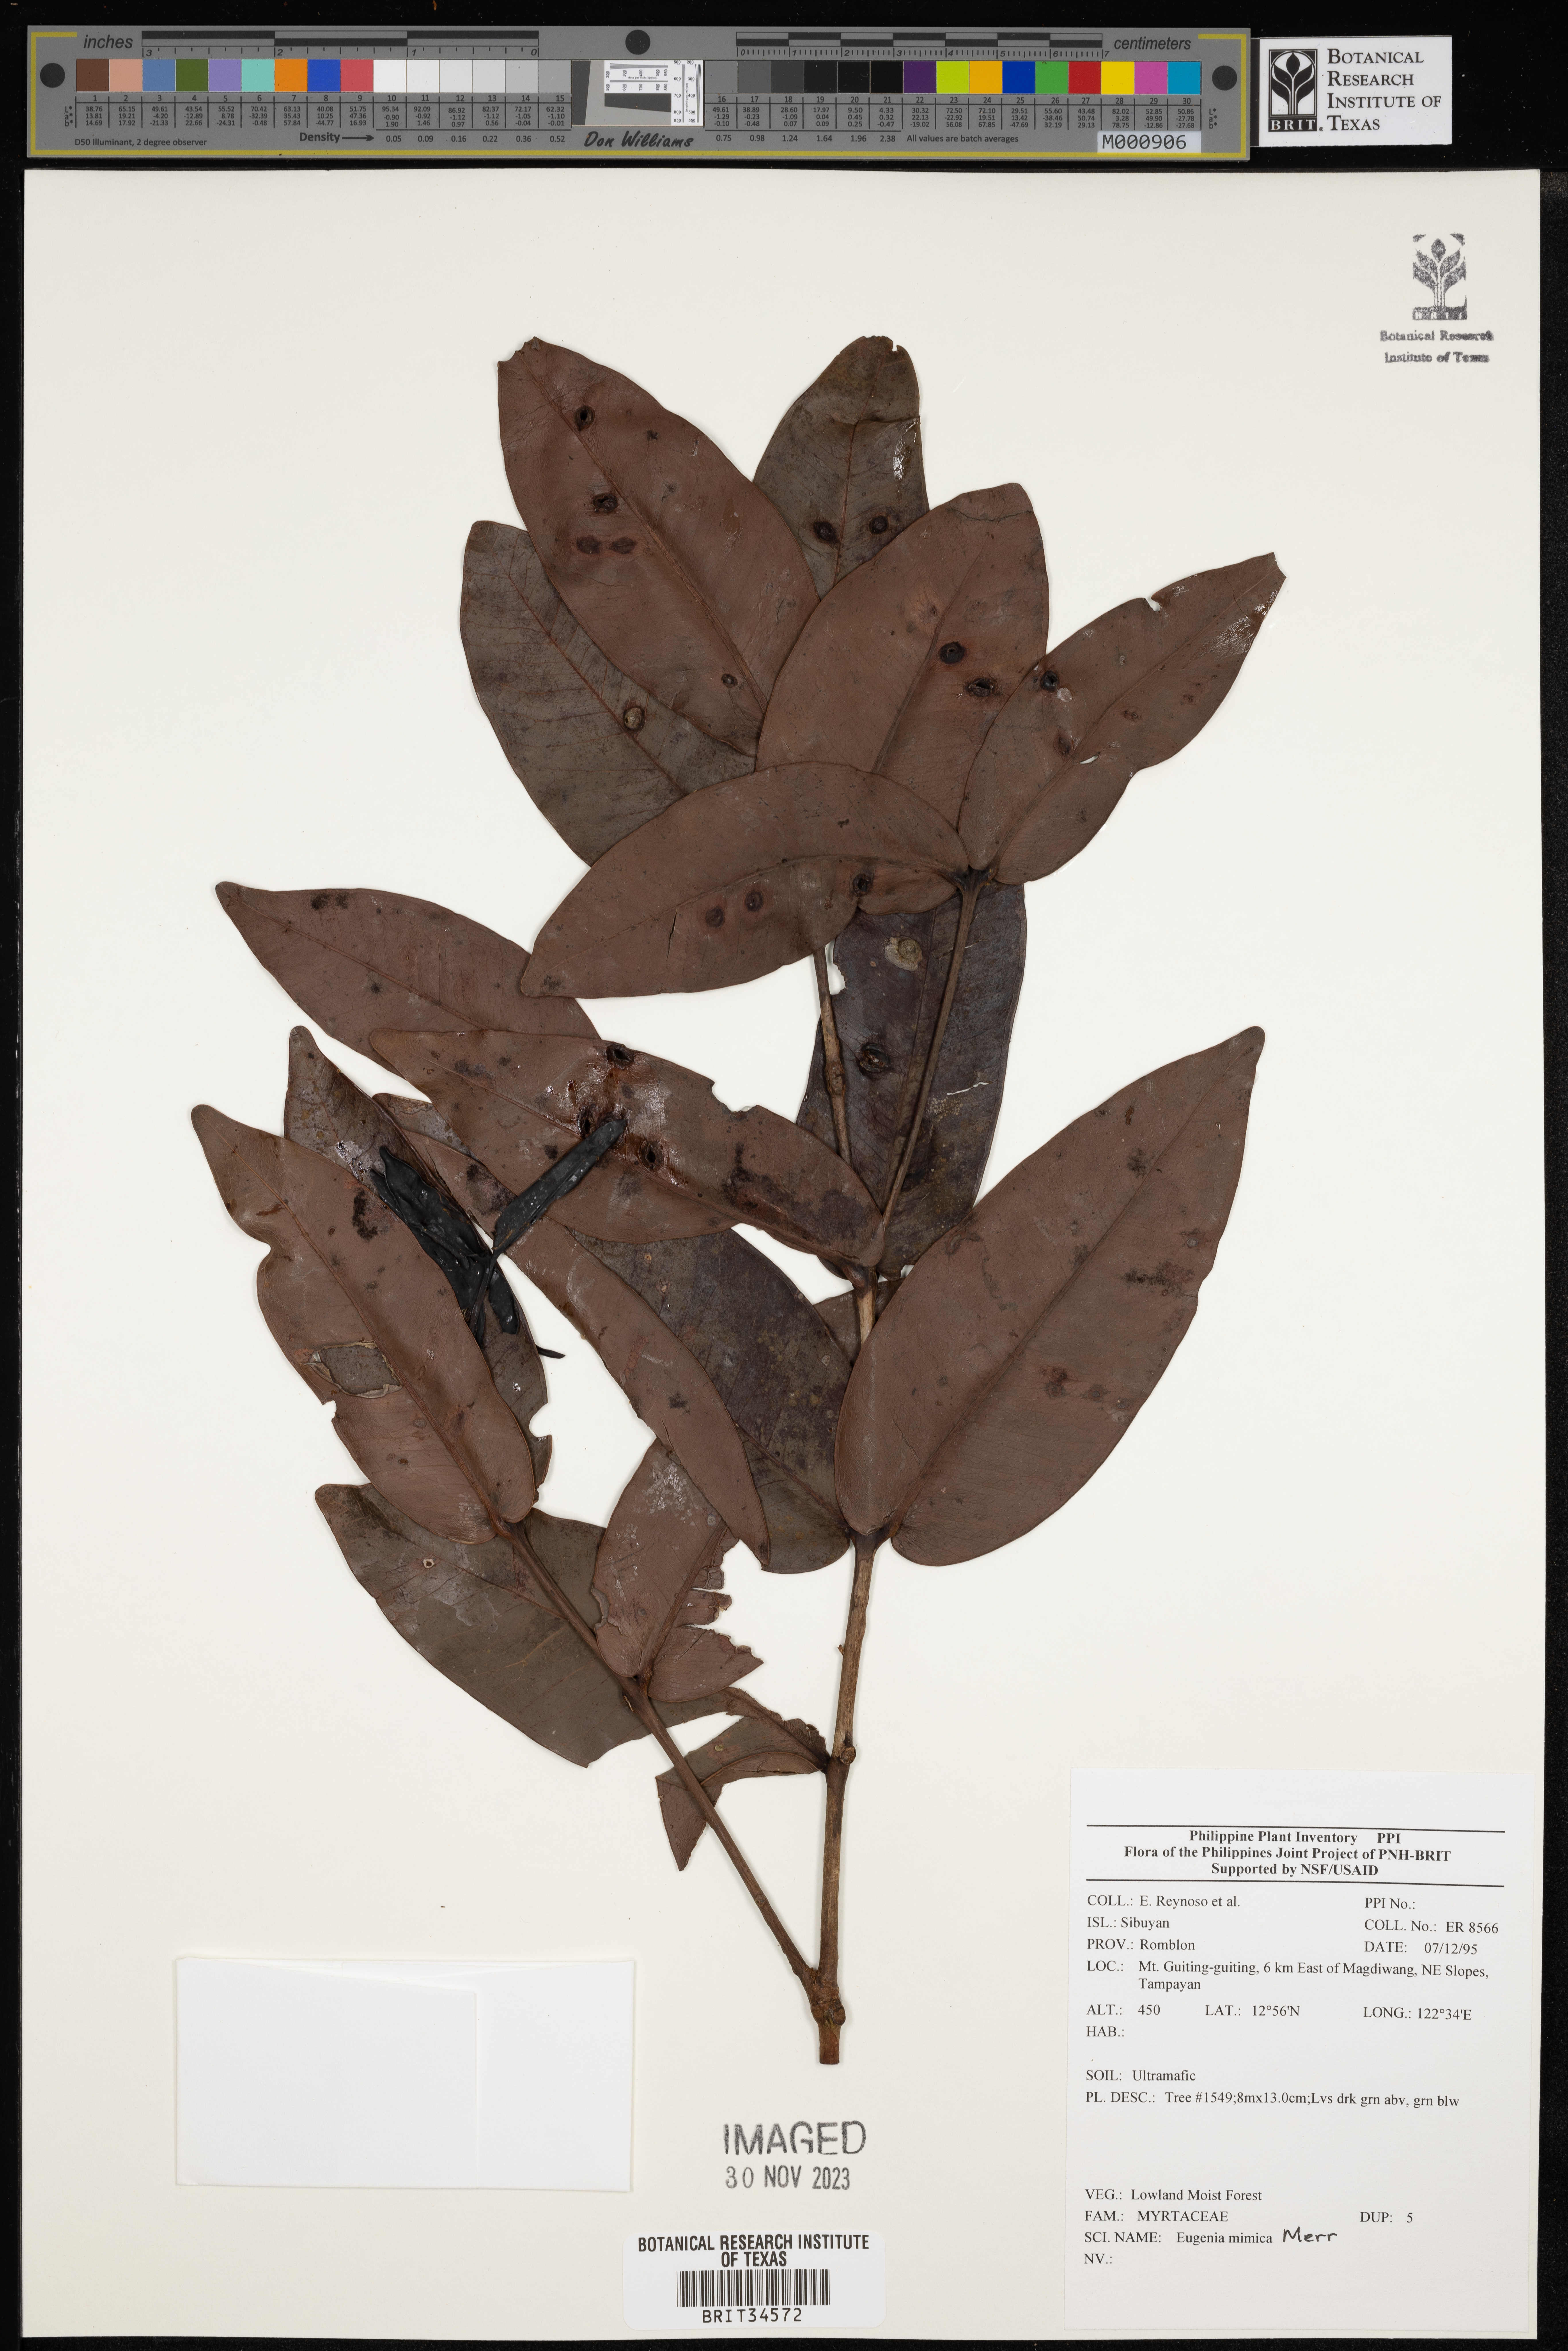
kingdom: Plantae
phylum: Tracheophyta
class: Magnoliopsida
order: Myrtales
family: Myrtaceae
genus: Eugenia
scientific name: Eugenia
